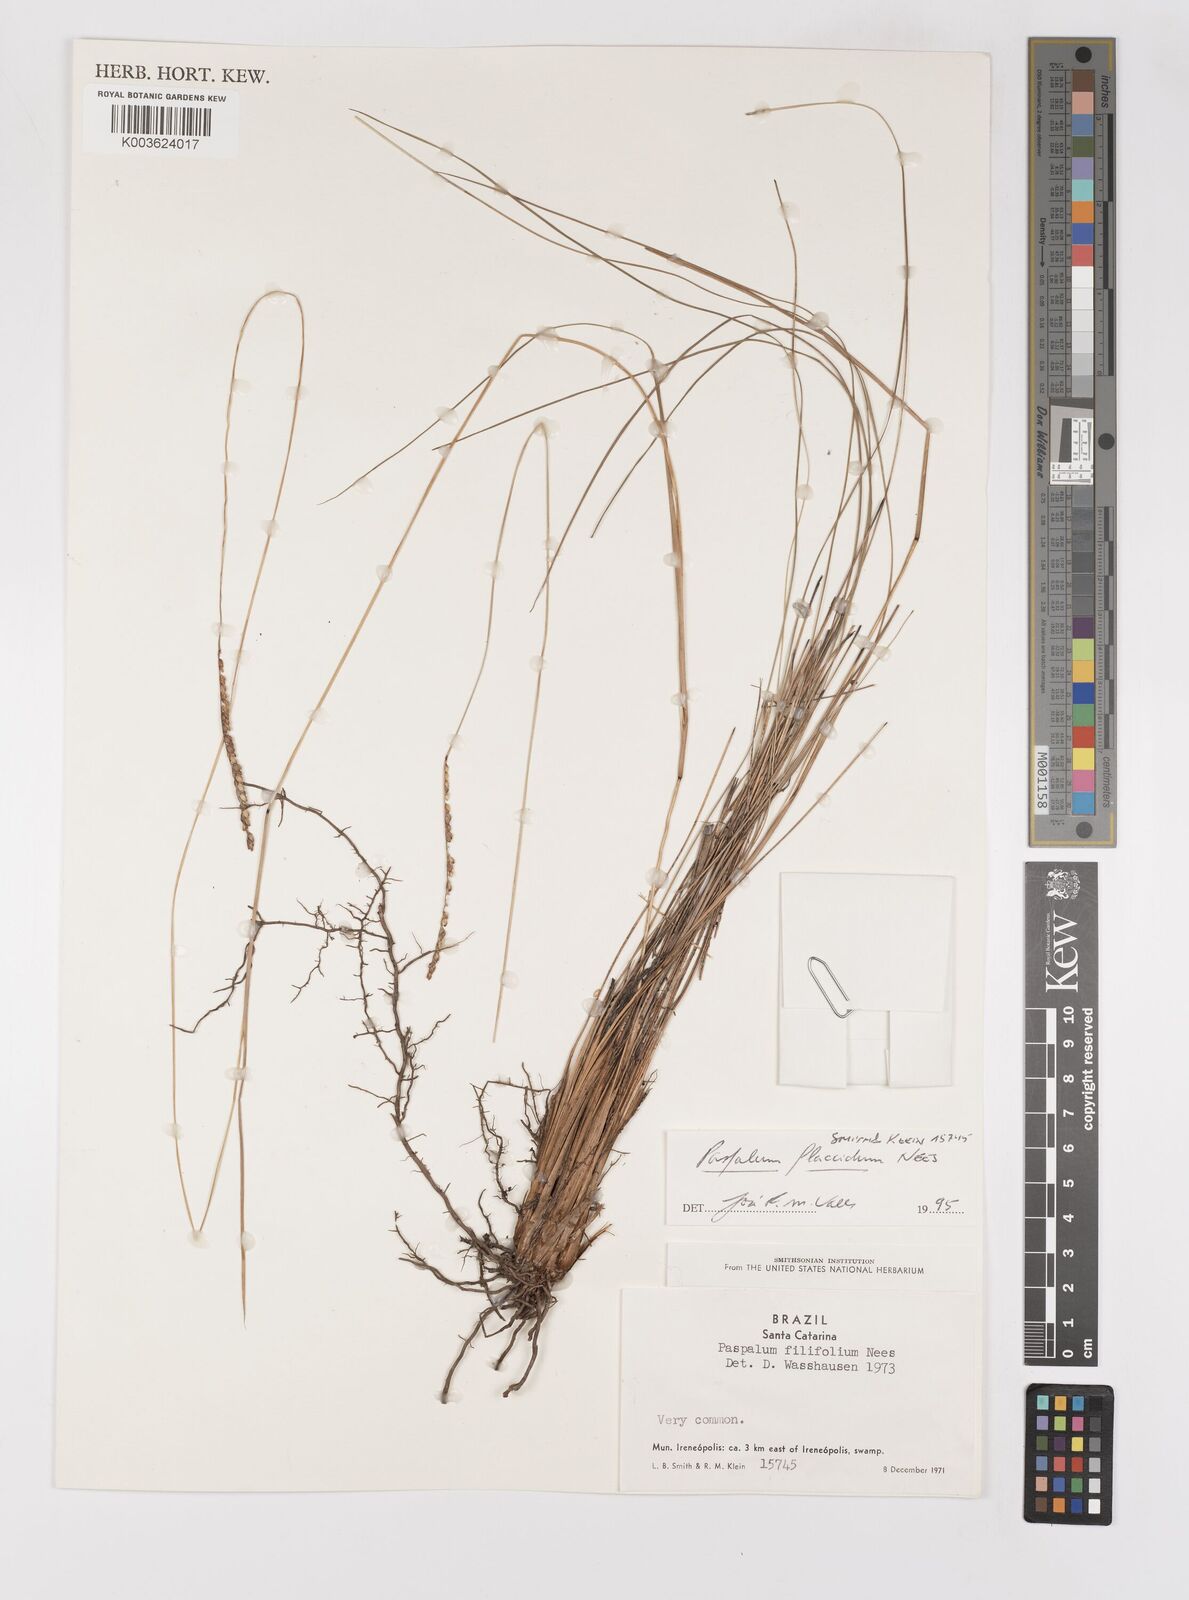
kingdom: Plantae
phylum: Tracheophyta
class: Liliopsida
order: Poales
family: Poaceae
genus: Paspalum
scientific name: Paspalum flaccidum
